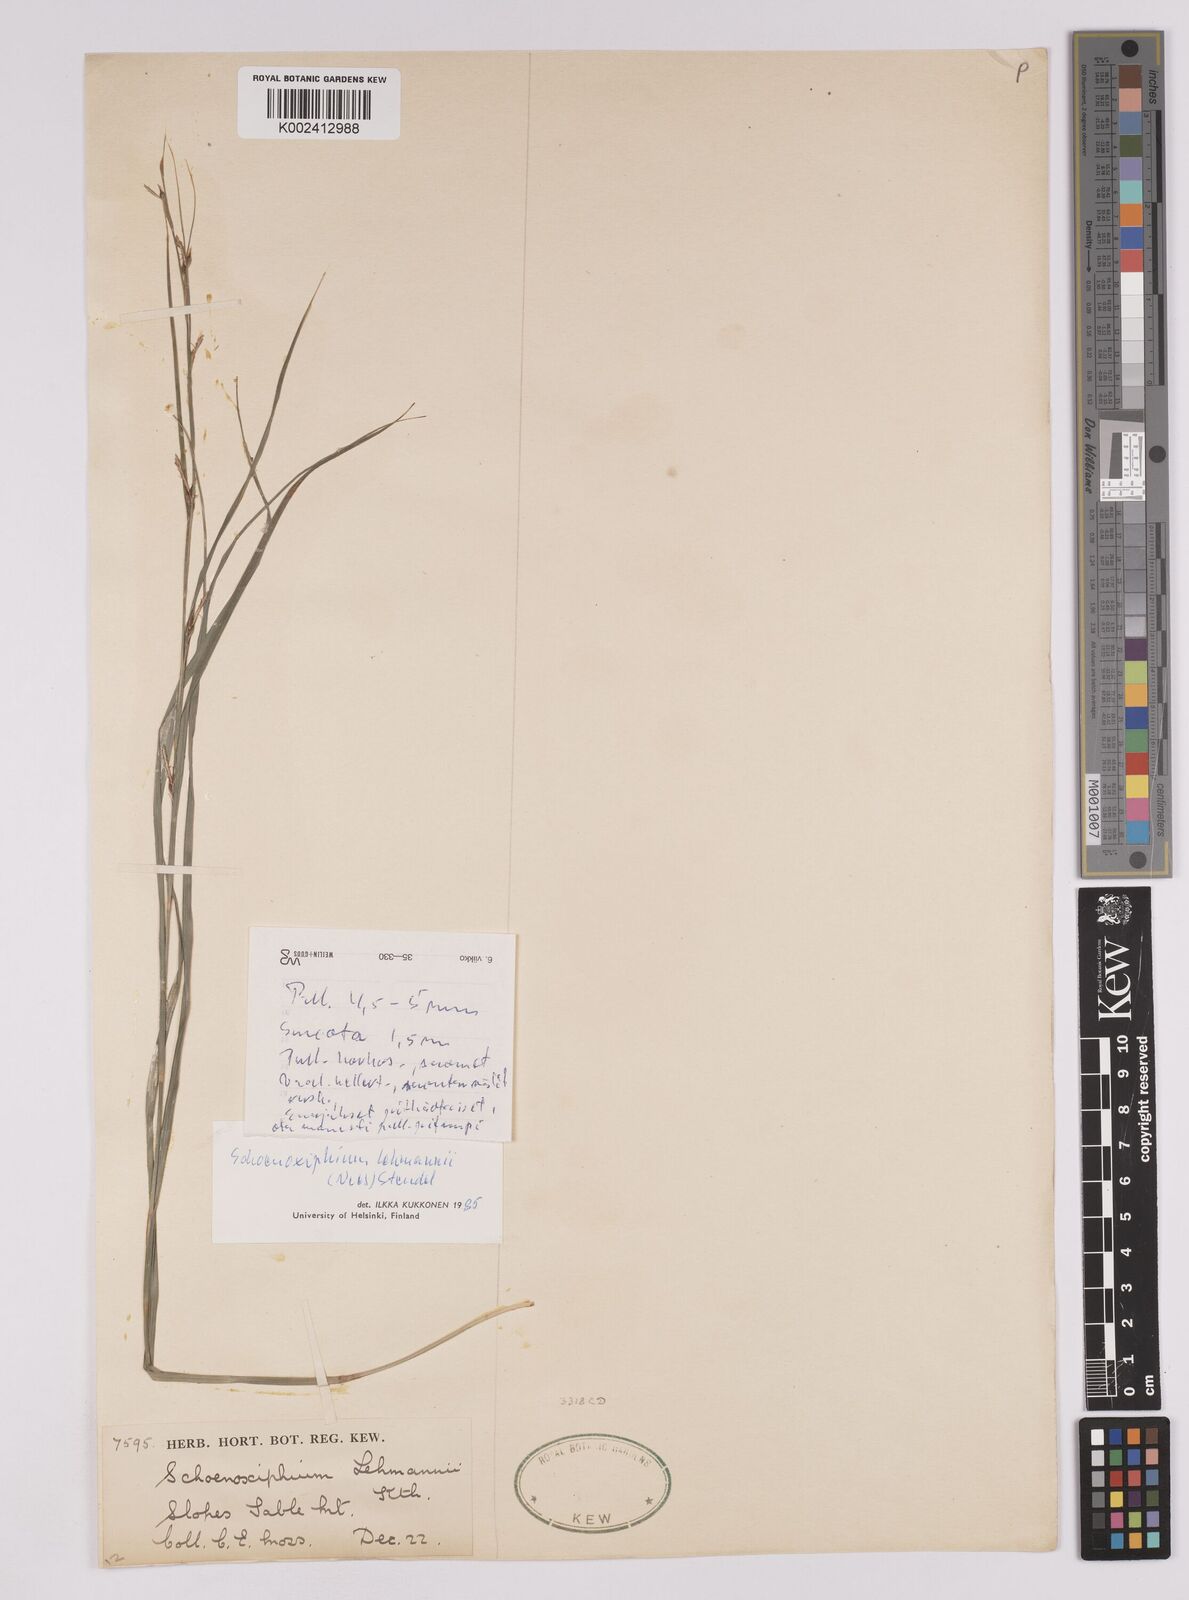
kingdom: Plantae
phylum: Tracheophyta
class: Liliopsida
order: Poales
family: Cyperaceae
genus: Carex
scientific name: Carex uhligii
